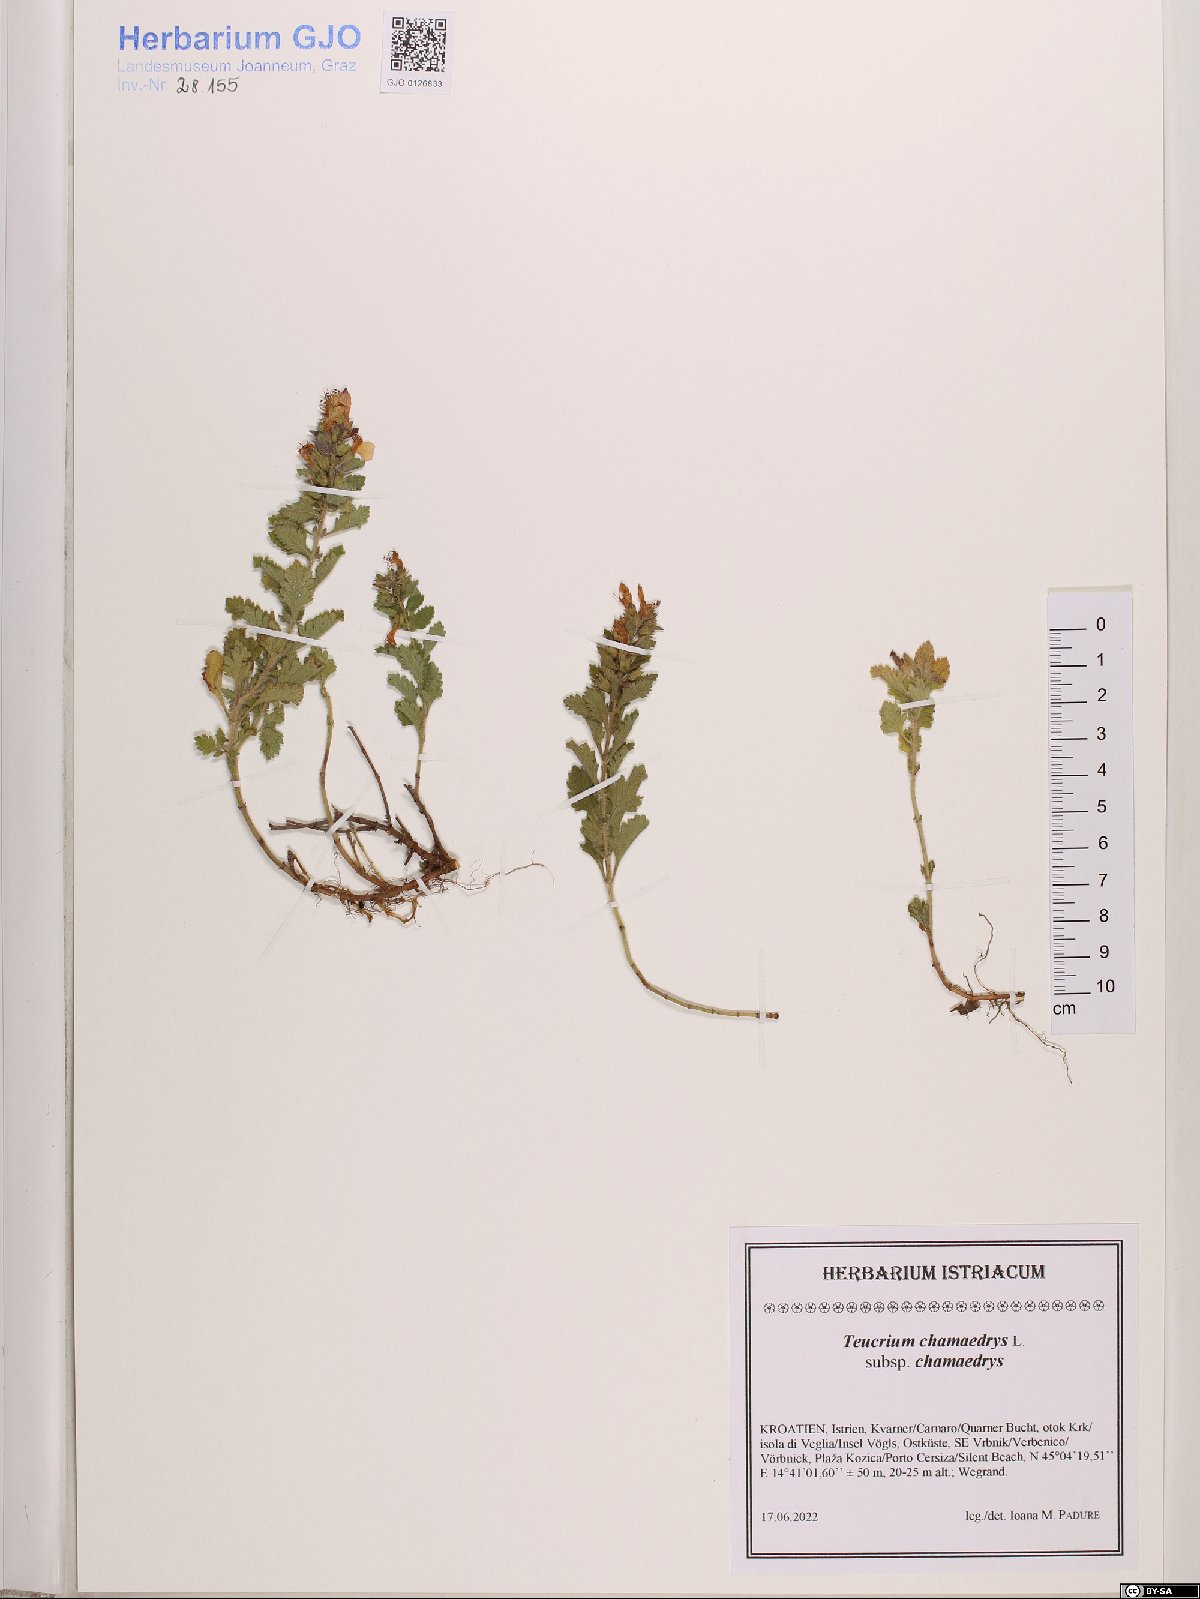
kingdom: Plantae
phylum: Tracheophyta
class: Magnoliopsida
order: Lamiales
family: Lamiaceae
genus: Teucrium
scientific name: Teucrium chamaedrys
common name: Wall germander
